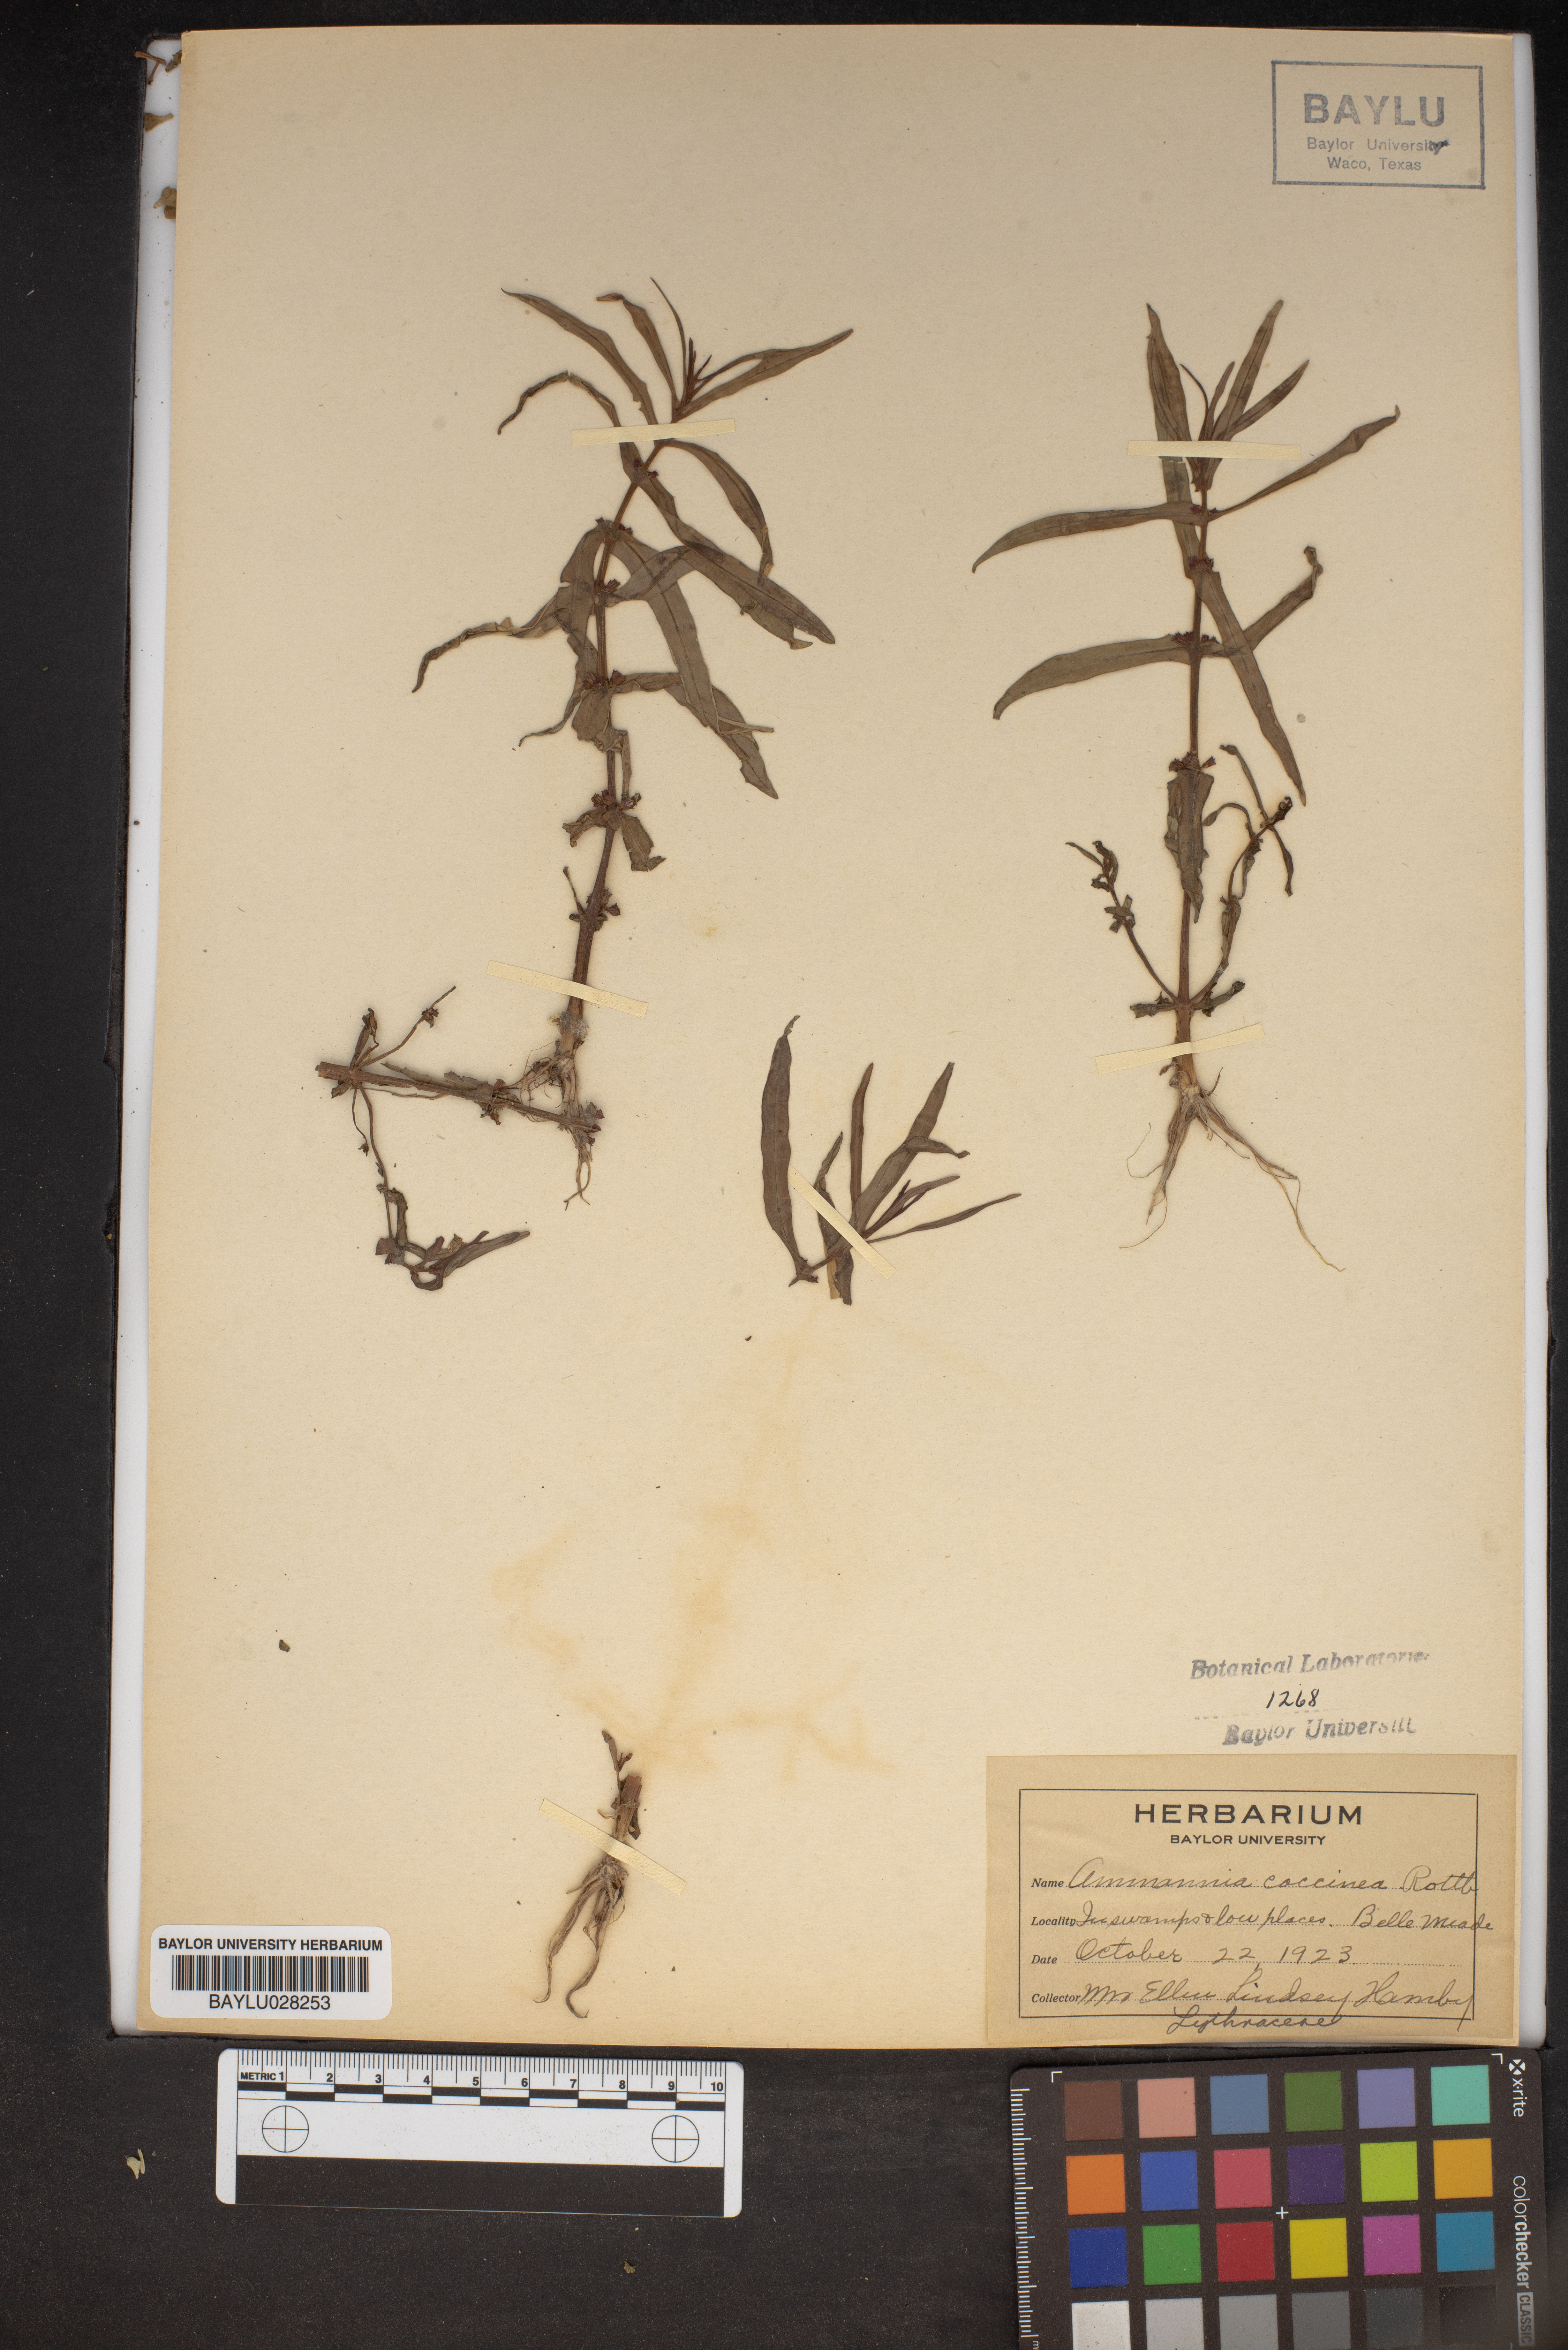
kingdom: Plantae
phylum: Tracheophyta
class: Magnoliopsida
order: Myrtales
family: Lythraceae
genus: Ammannia
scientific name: Ammannia coccinea
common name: Valley redstem
